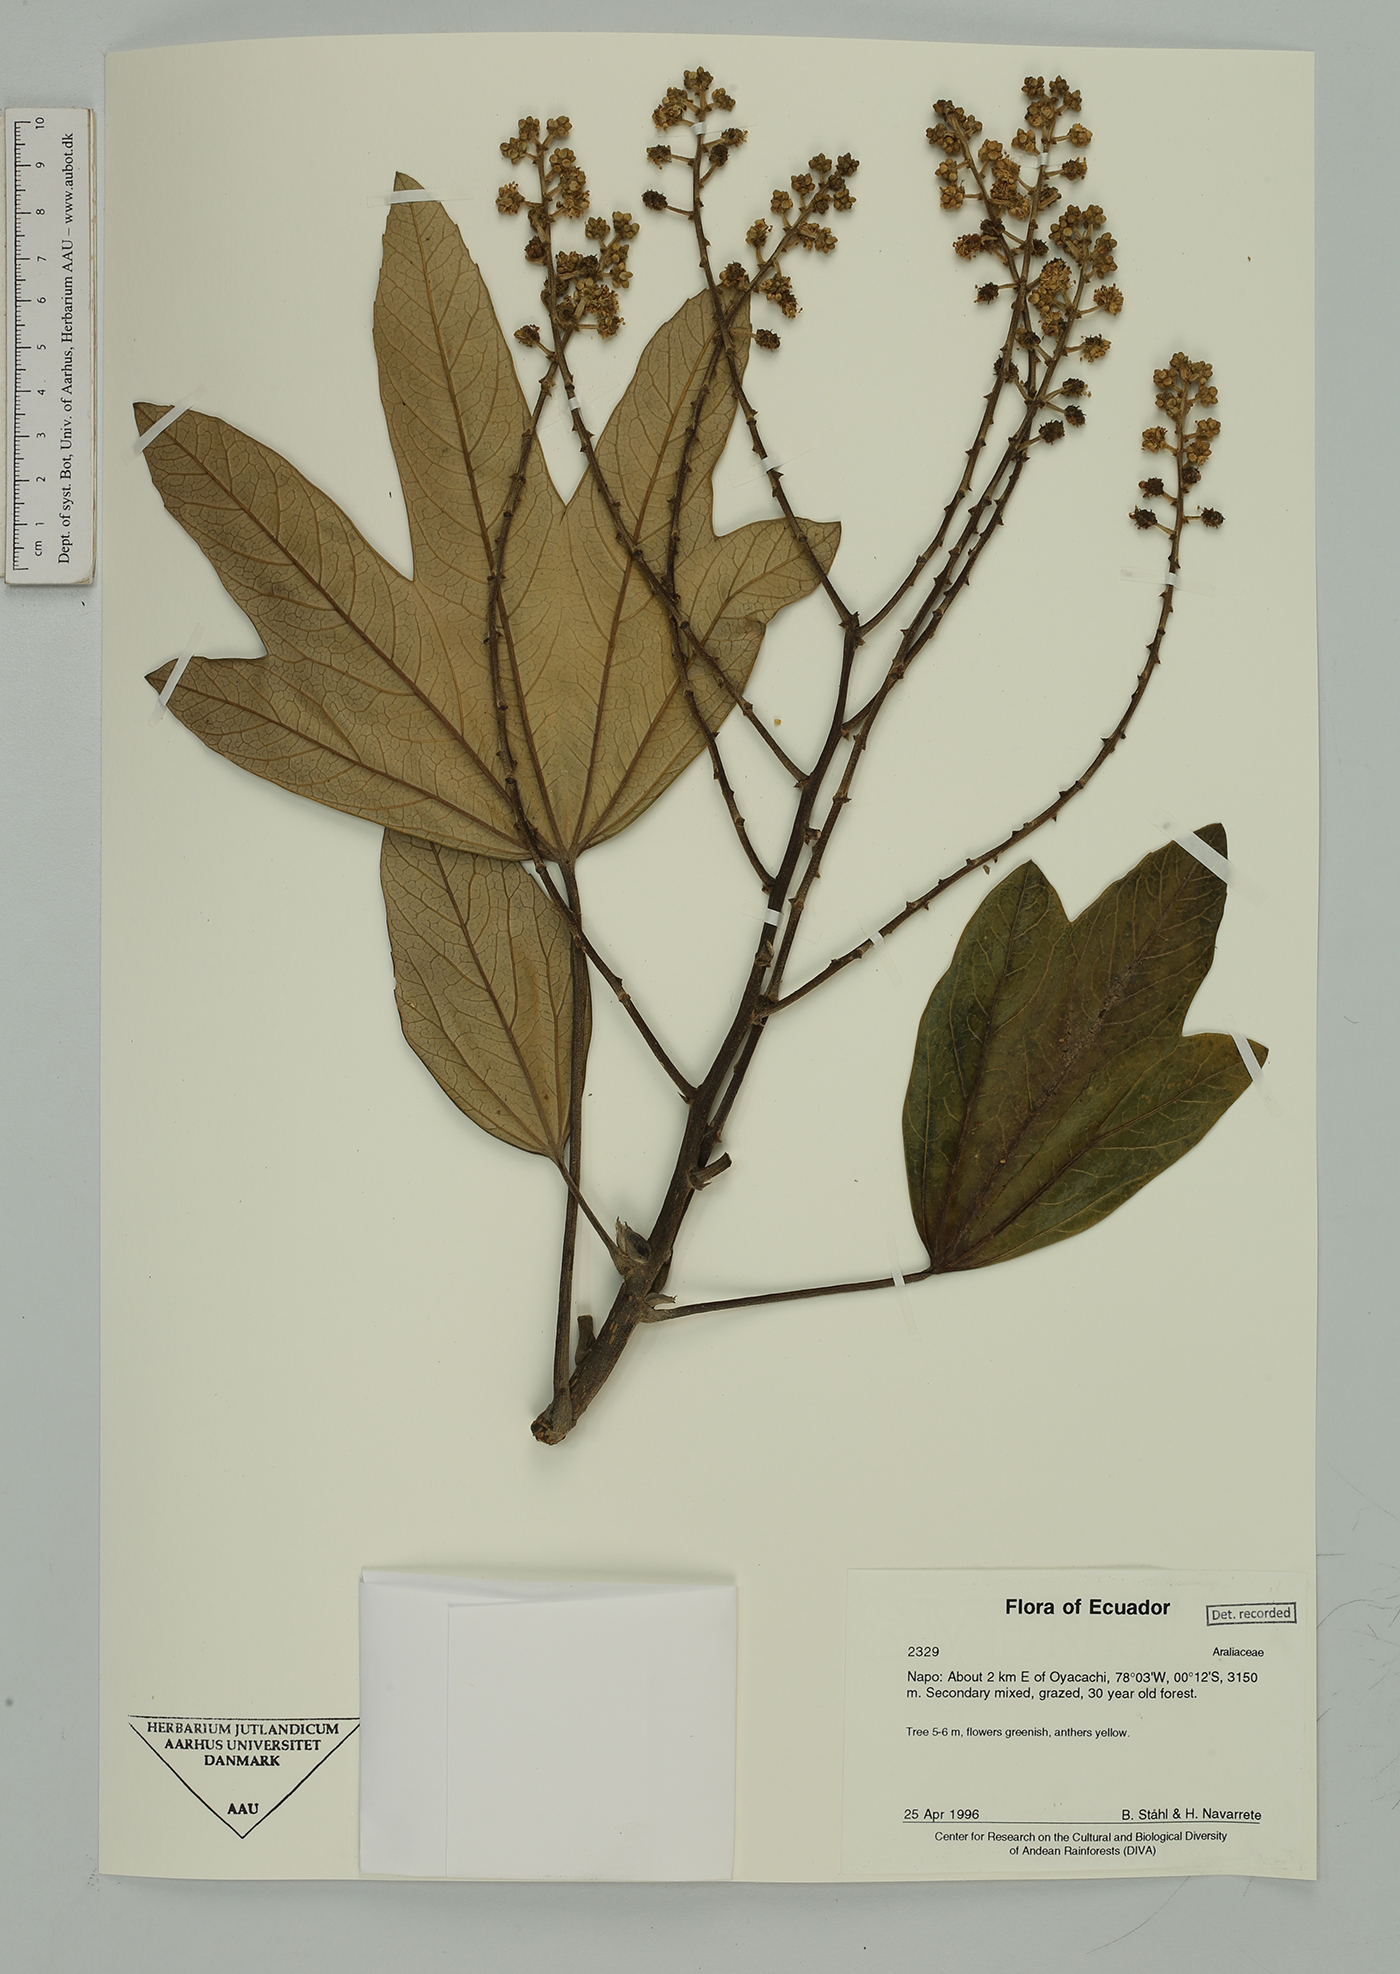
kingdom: Plantae
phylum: Tracheophyta
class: Magnoliopsida
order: Apiales
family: Araliaceae
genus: Oreopanax
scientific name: Oreopanax
